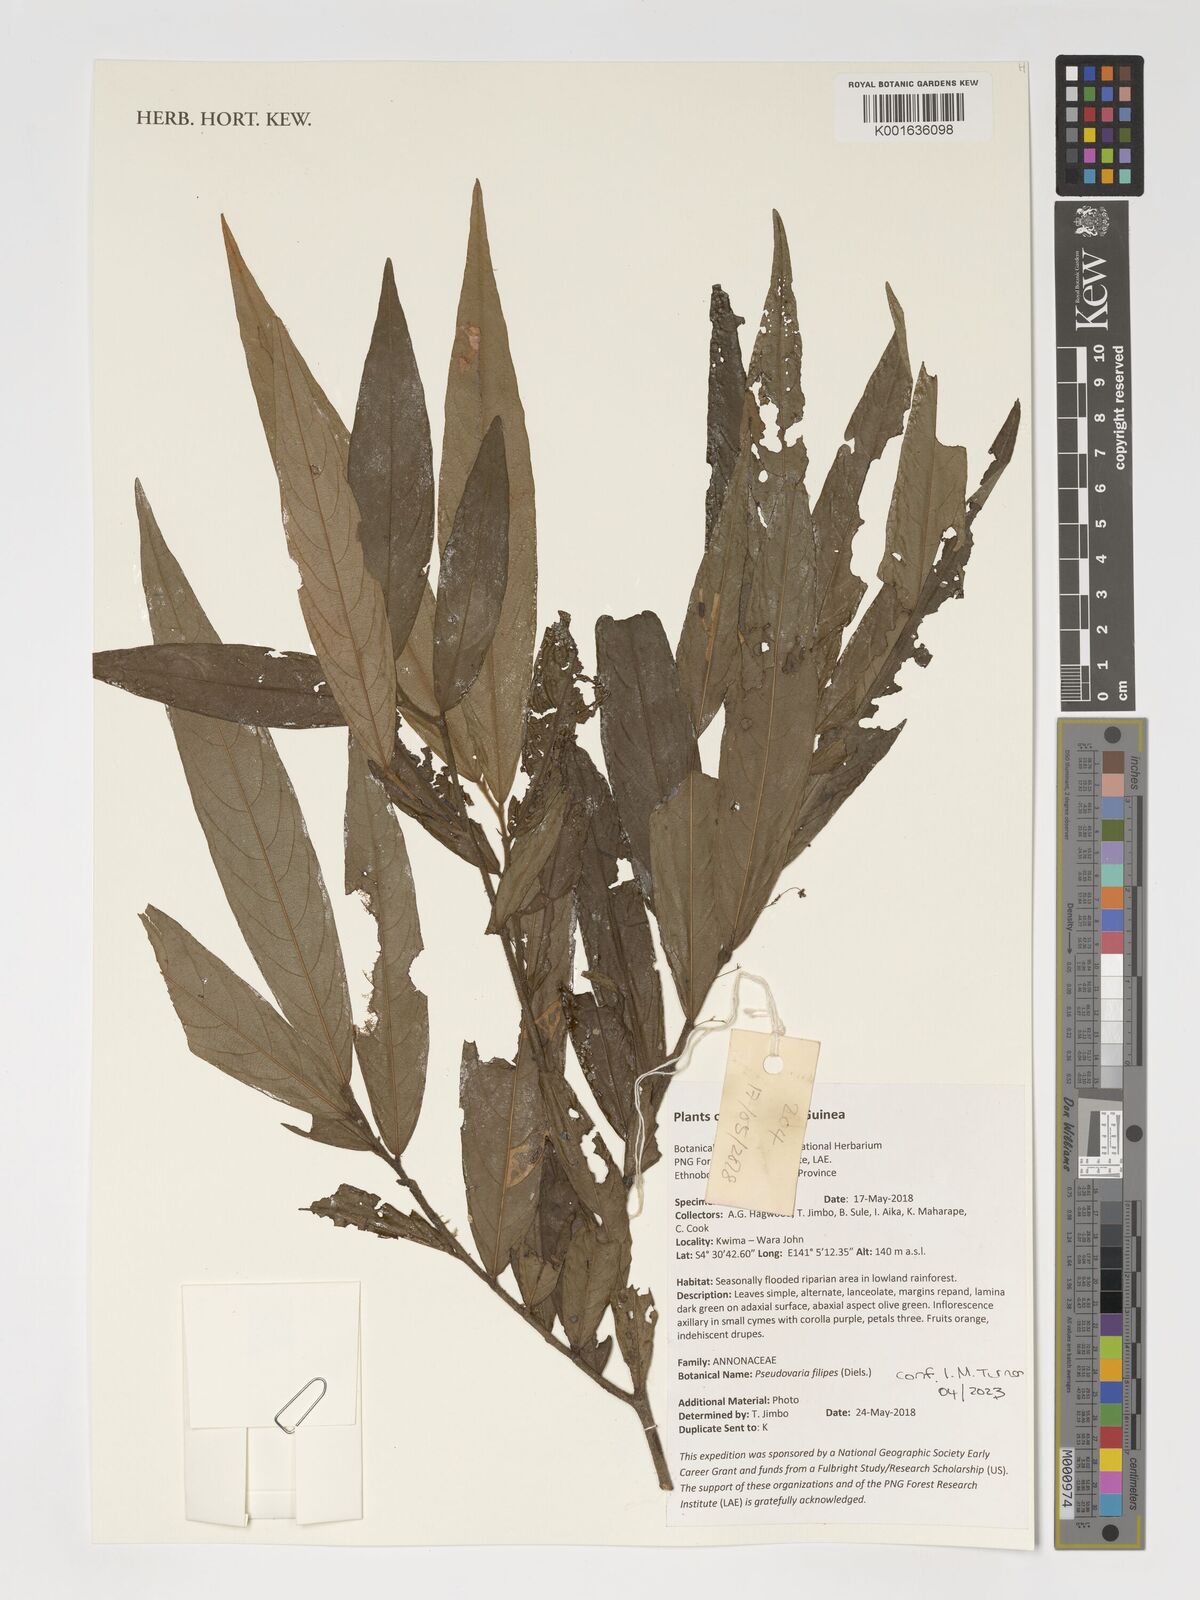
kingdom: Plantae
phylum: Tracheophyta
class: Magnoliopsida
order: Magnoliales
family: Annonaceae
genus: Pseuduvaria
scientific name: Pseuduvaria filipes
